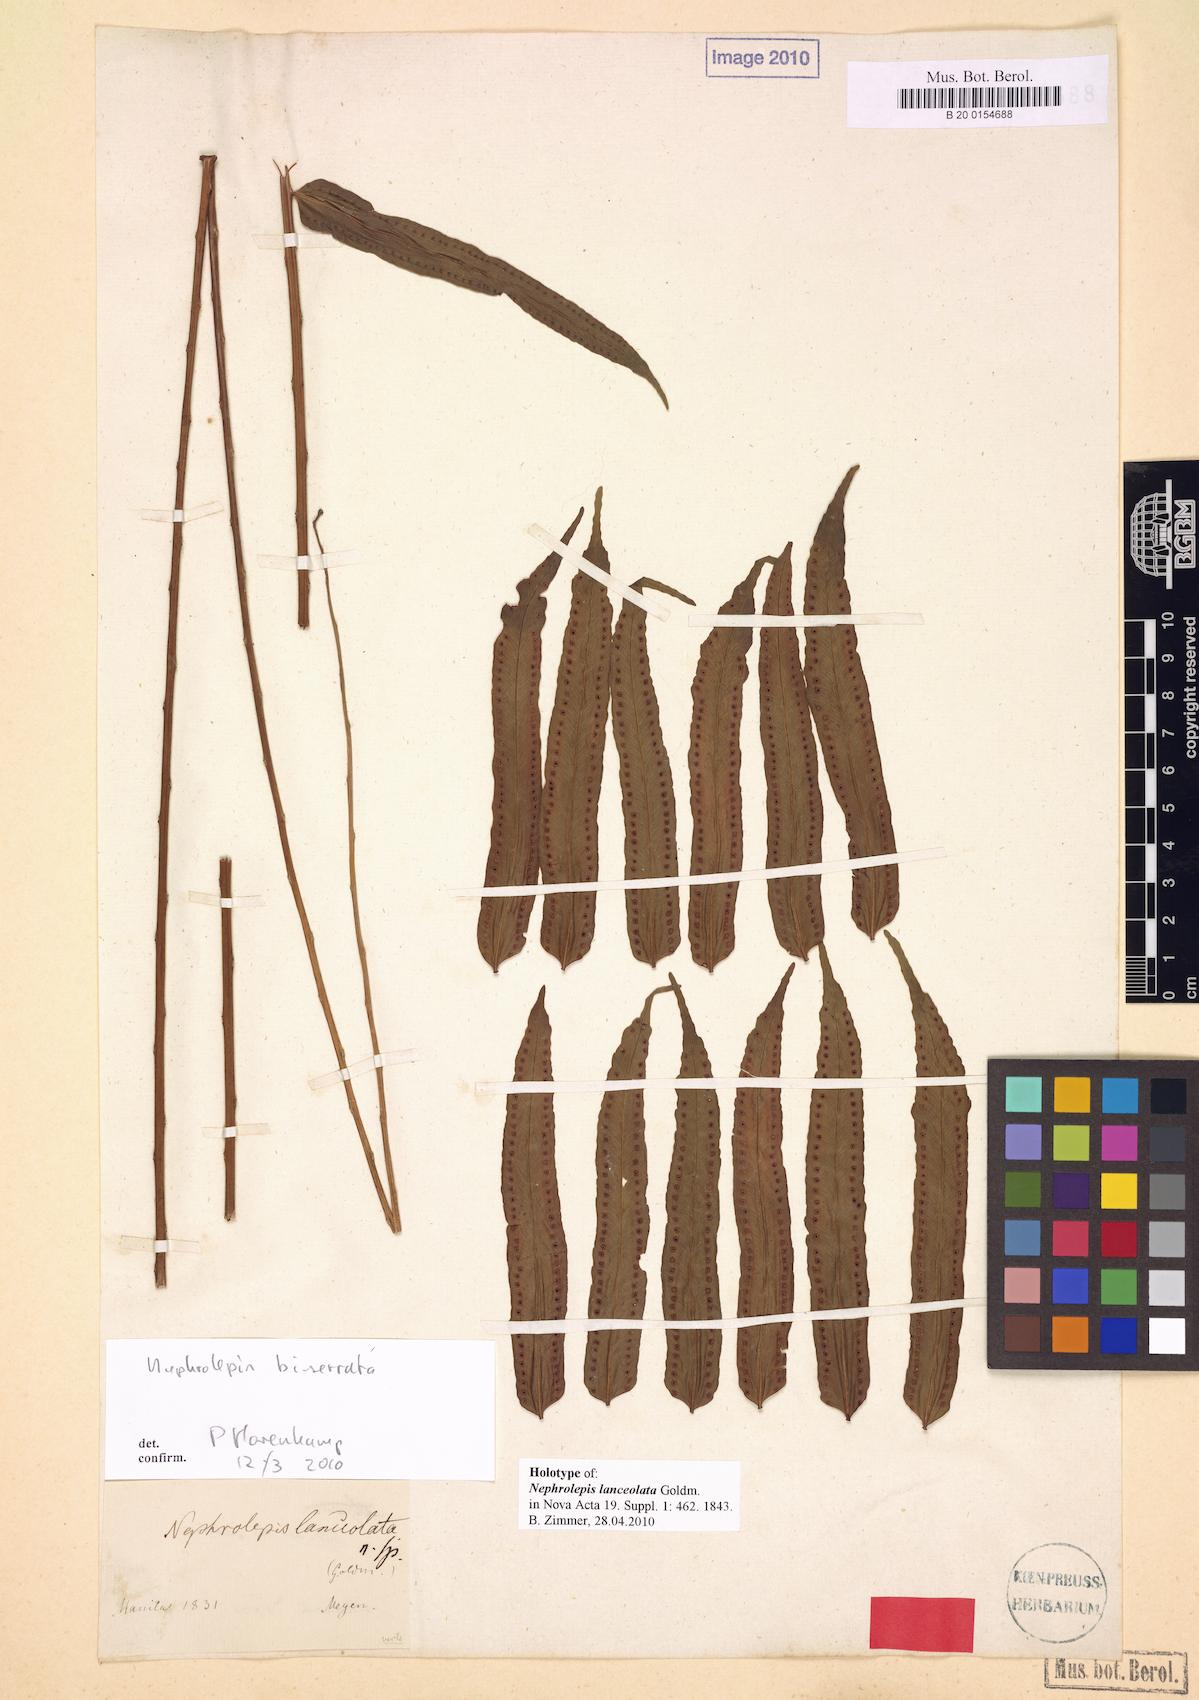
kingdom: Plantae
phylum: Tracheophyta
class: Polypodiopsida
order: Polypodiales
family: Nephrolepidaceae
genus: Nephrolepis
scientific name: Nephrolepis biserrata
